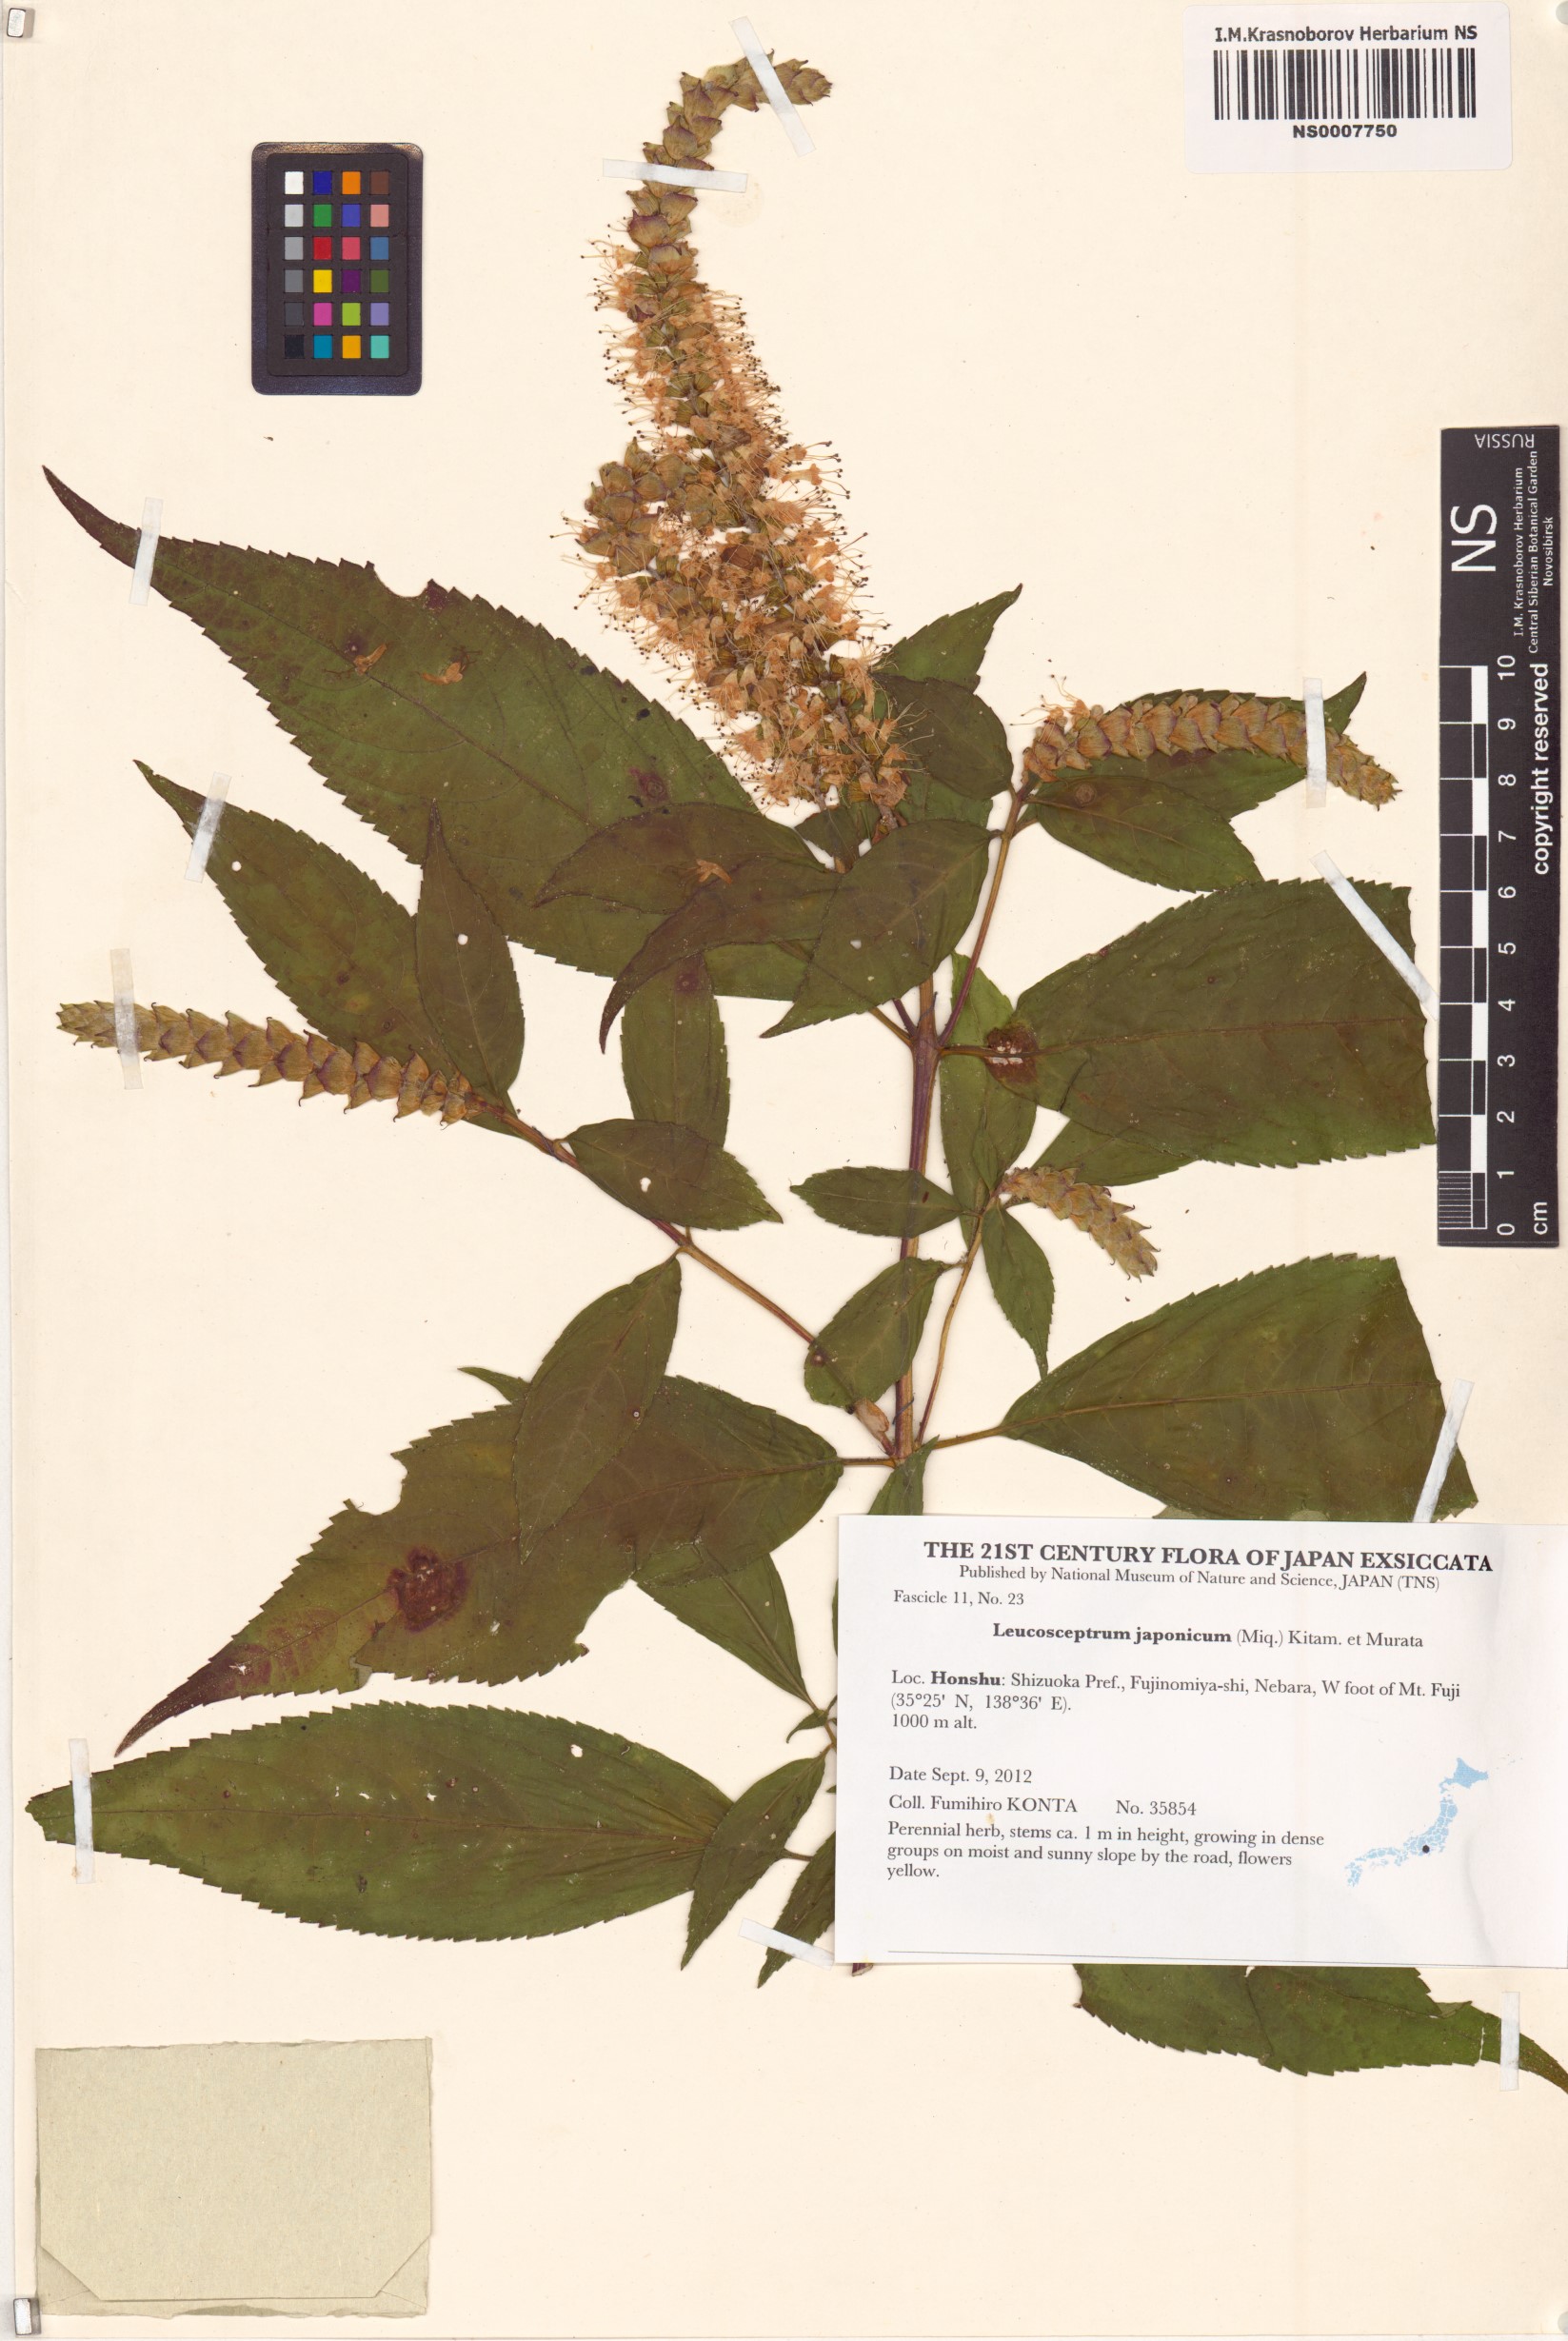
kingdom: Plantae
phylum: Tracheophyta
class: Magnoliopsida
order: Lamiales
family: Lamiaceae
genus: Comanthosphace
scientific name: Comanthosphace japonica
